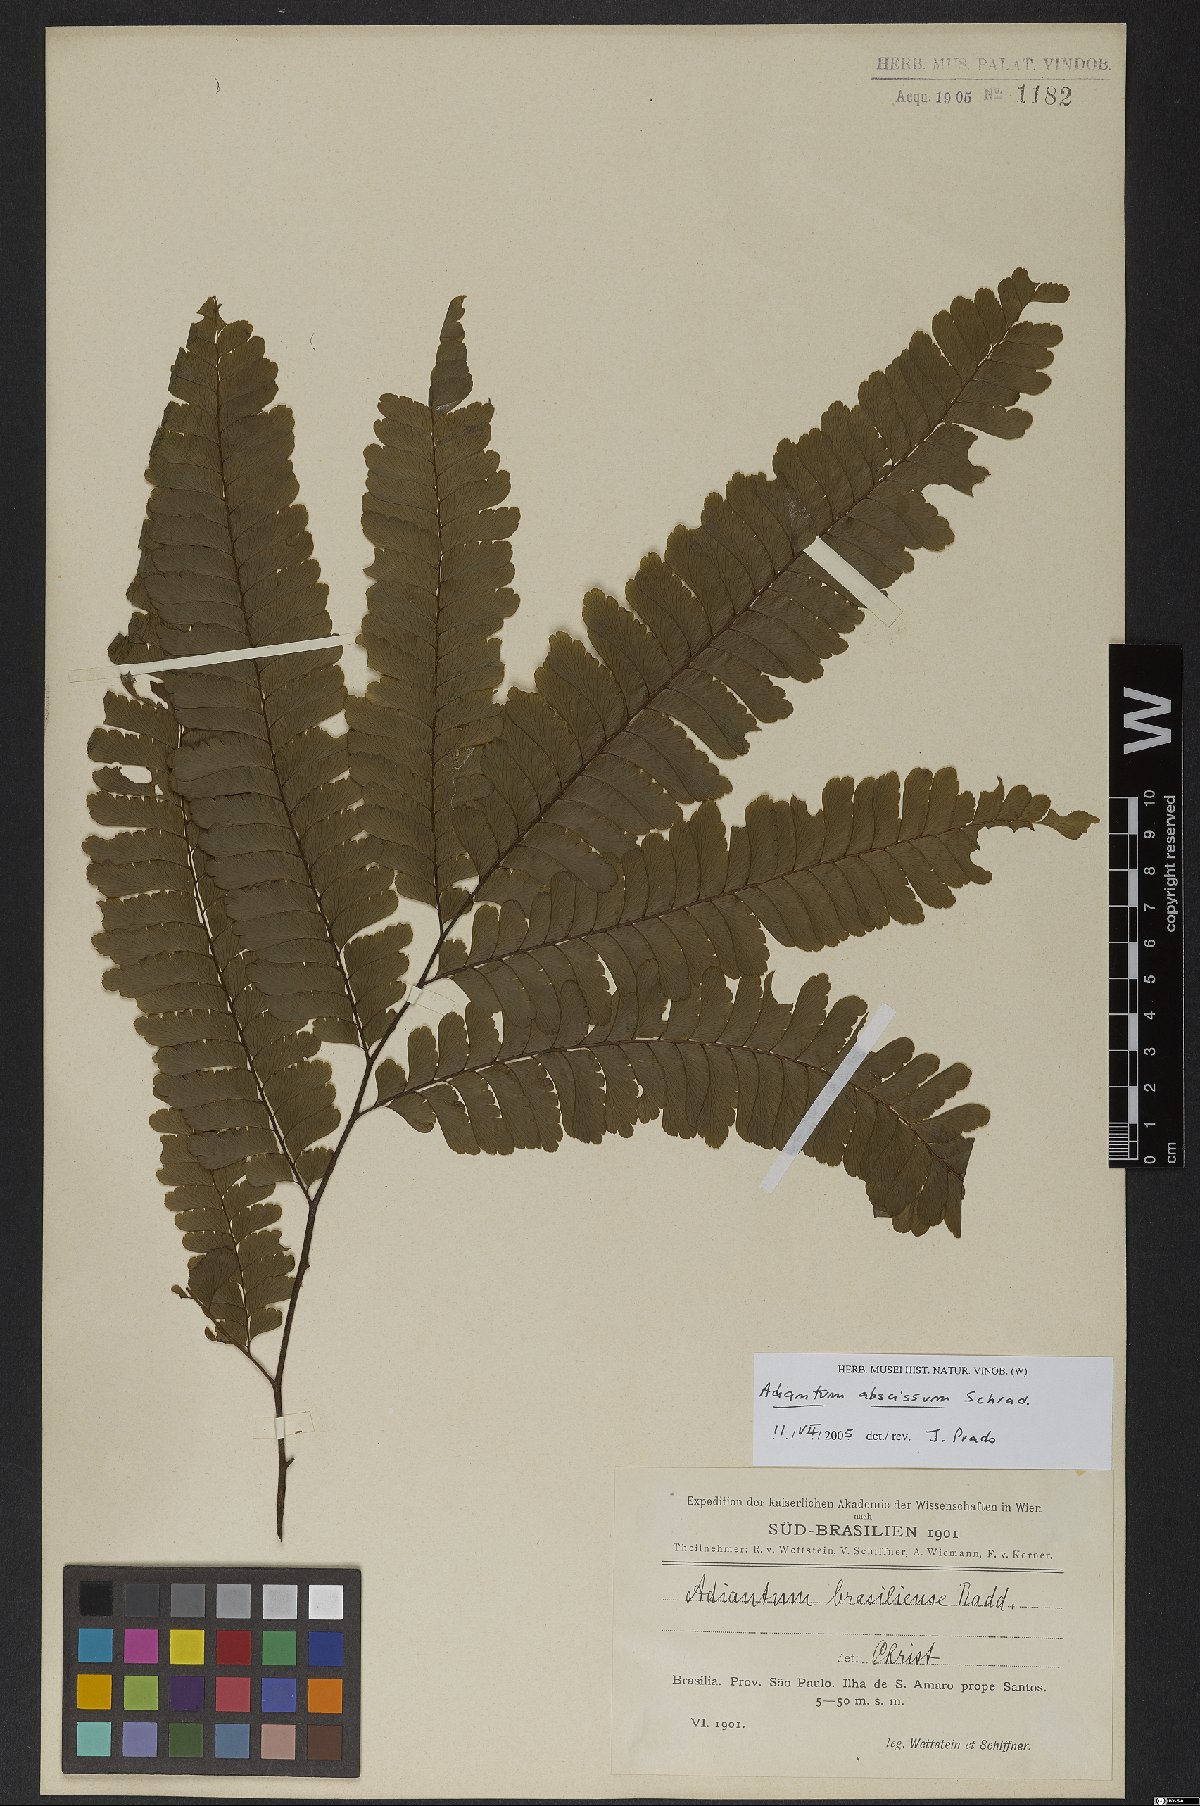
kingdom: Plantae
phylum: Tracheophyta
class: Polypodiopsida
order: Polypodiales
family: Pteridaceae
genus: Adiantum
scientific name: Adiantum abscissum
